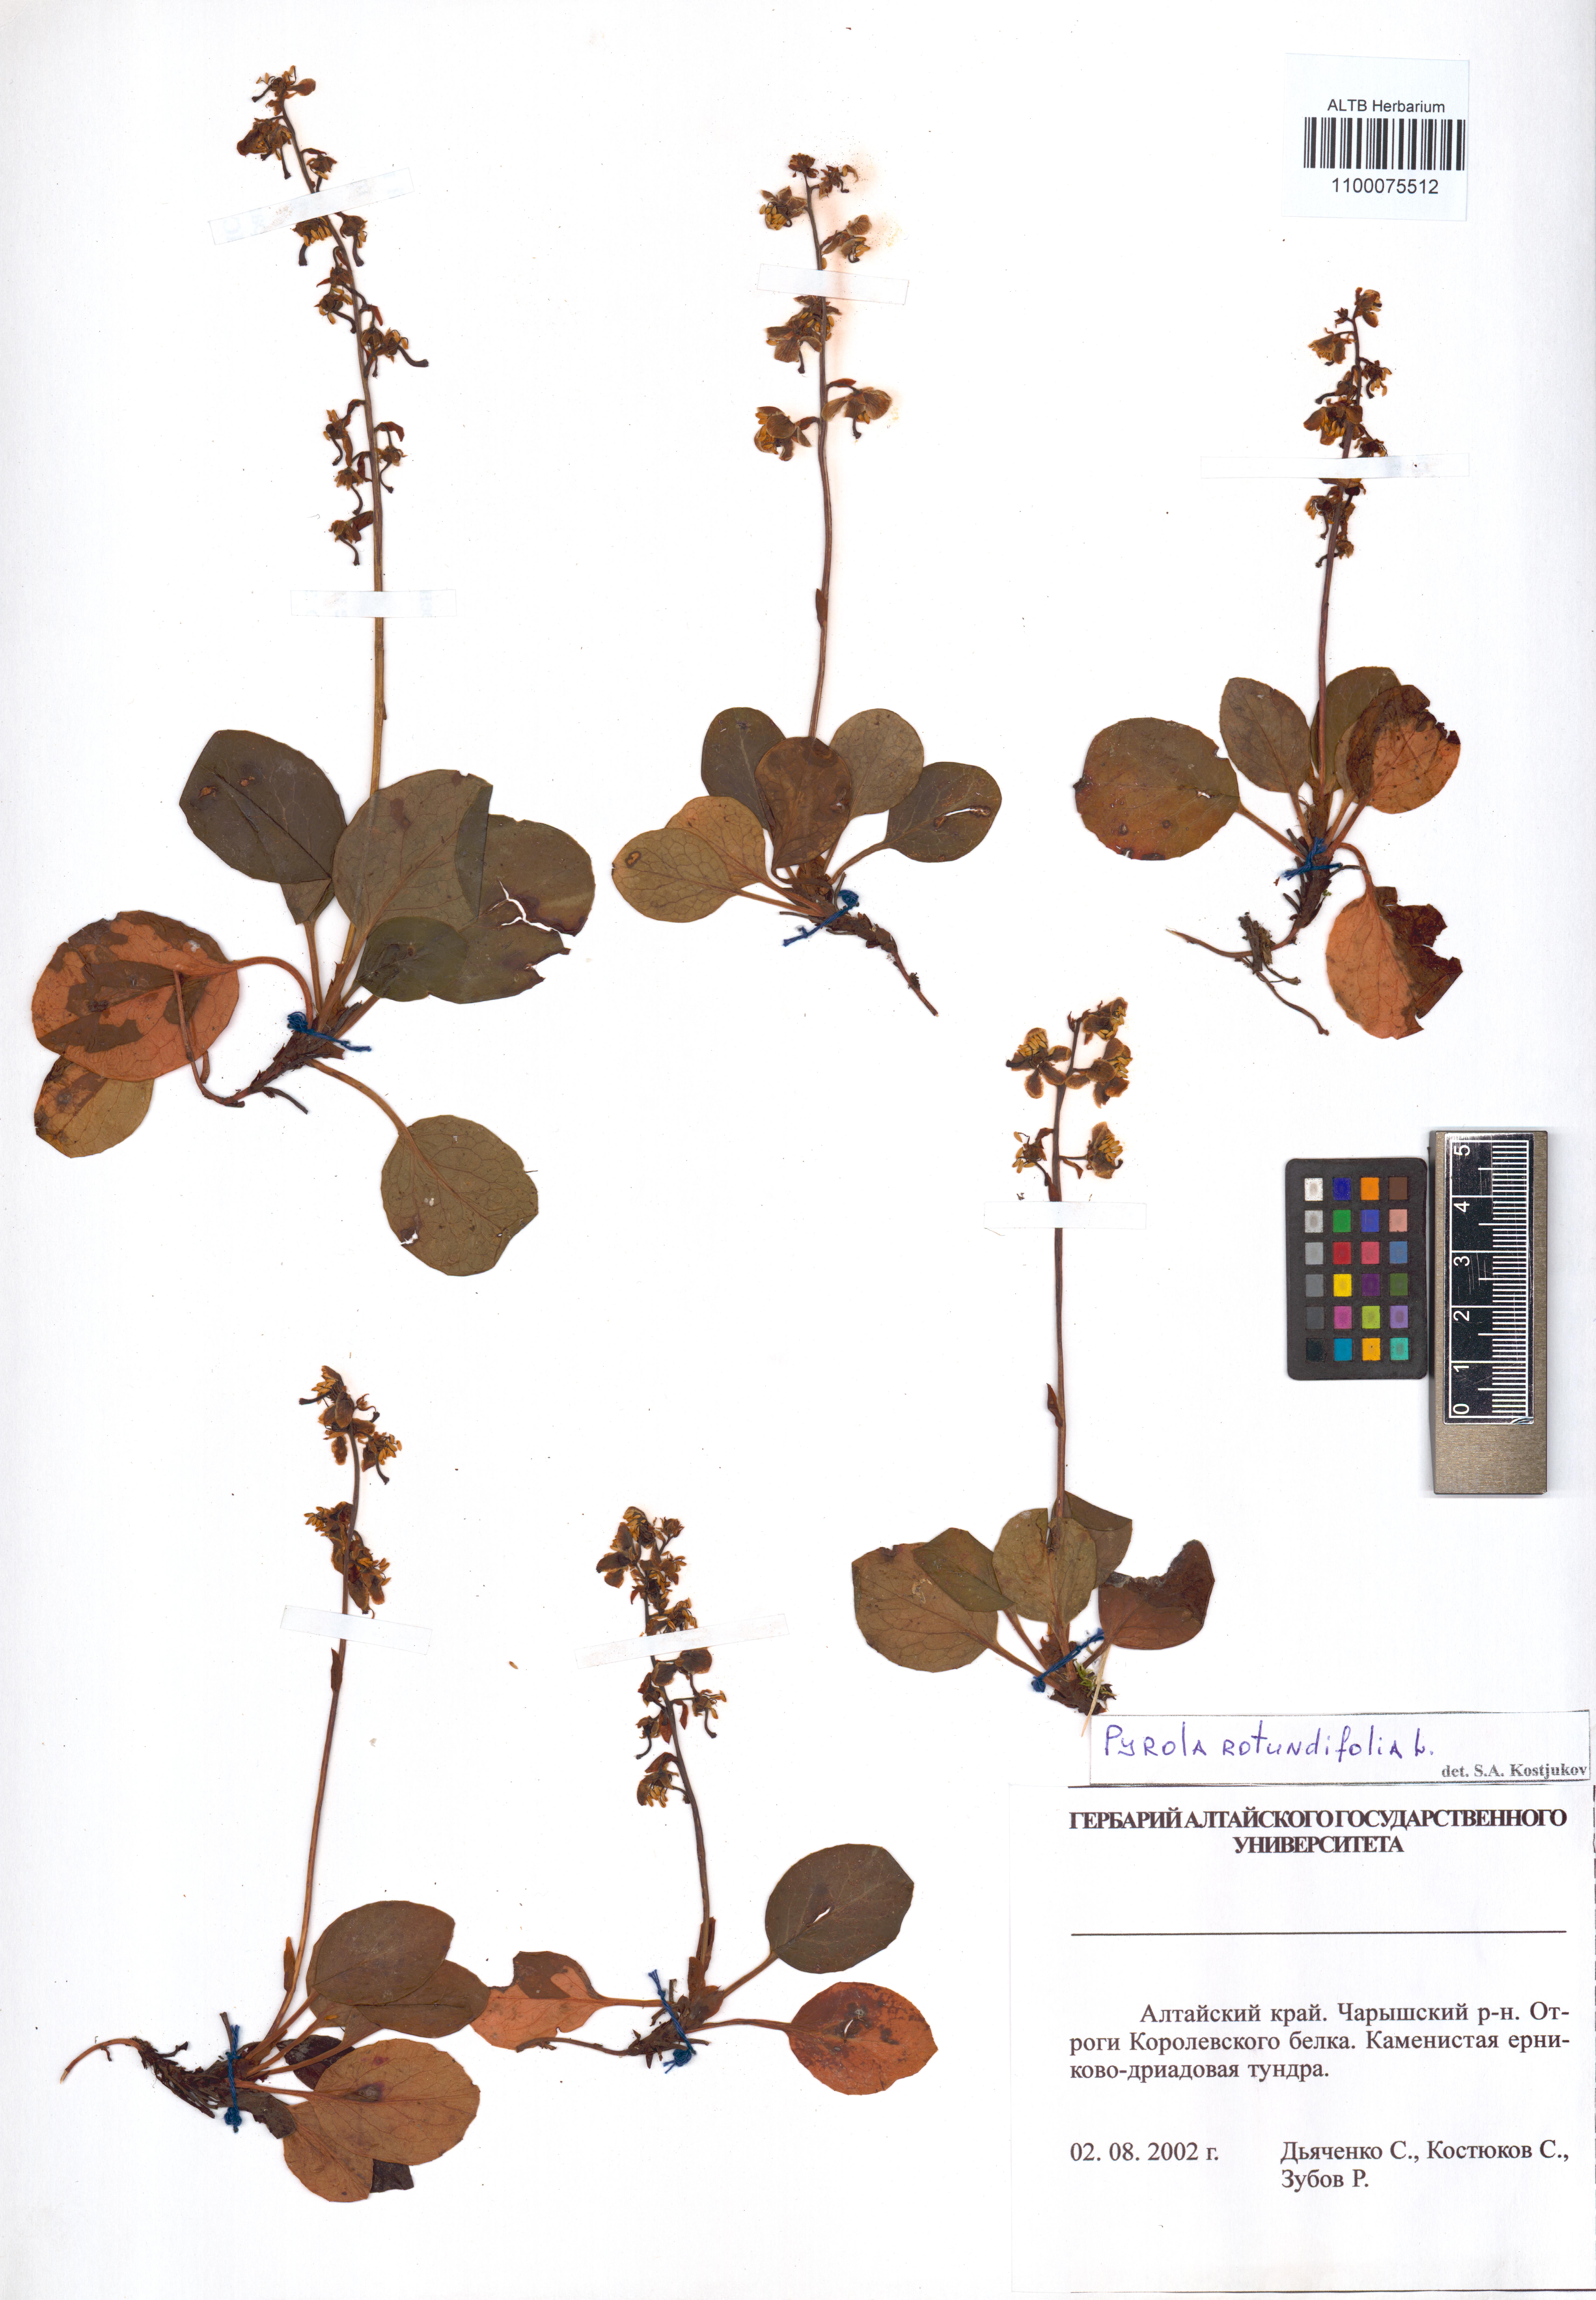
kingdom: Plantae
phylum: Tracheophyta
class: Magnoliopsida
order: Ericales
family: Ericaceae
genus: Pyrola
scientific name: Pyrola rotundifolia
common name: Round-leaved wintergreen
